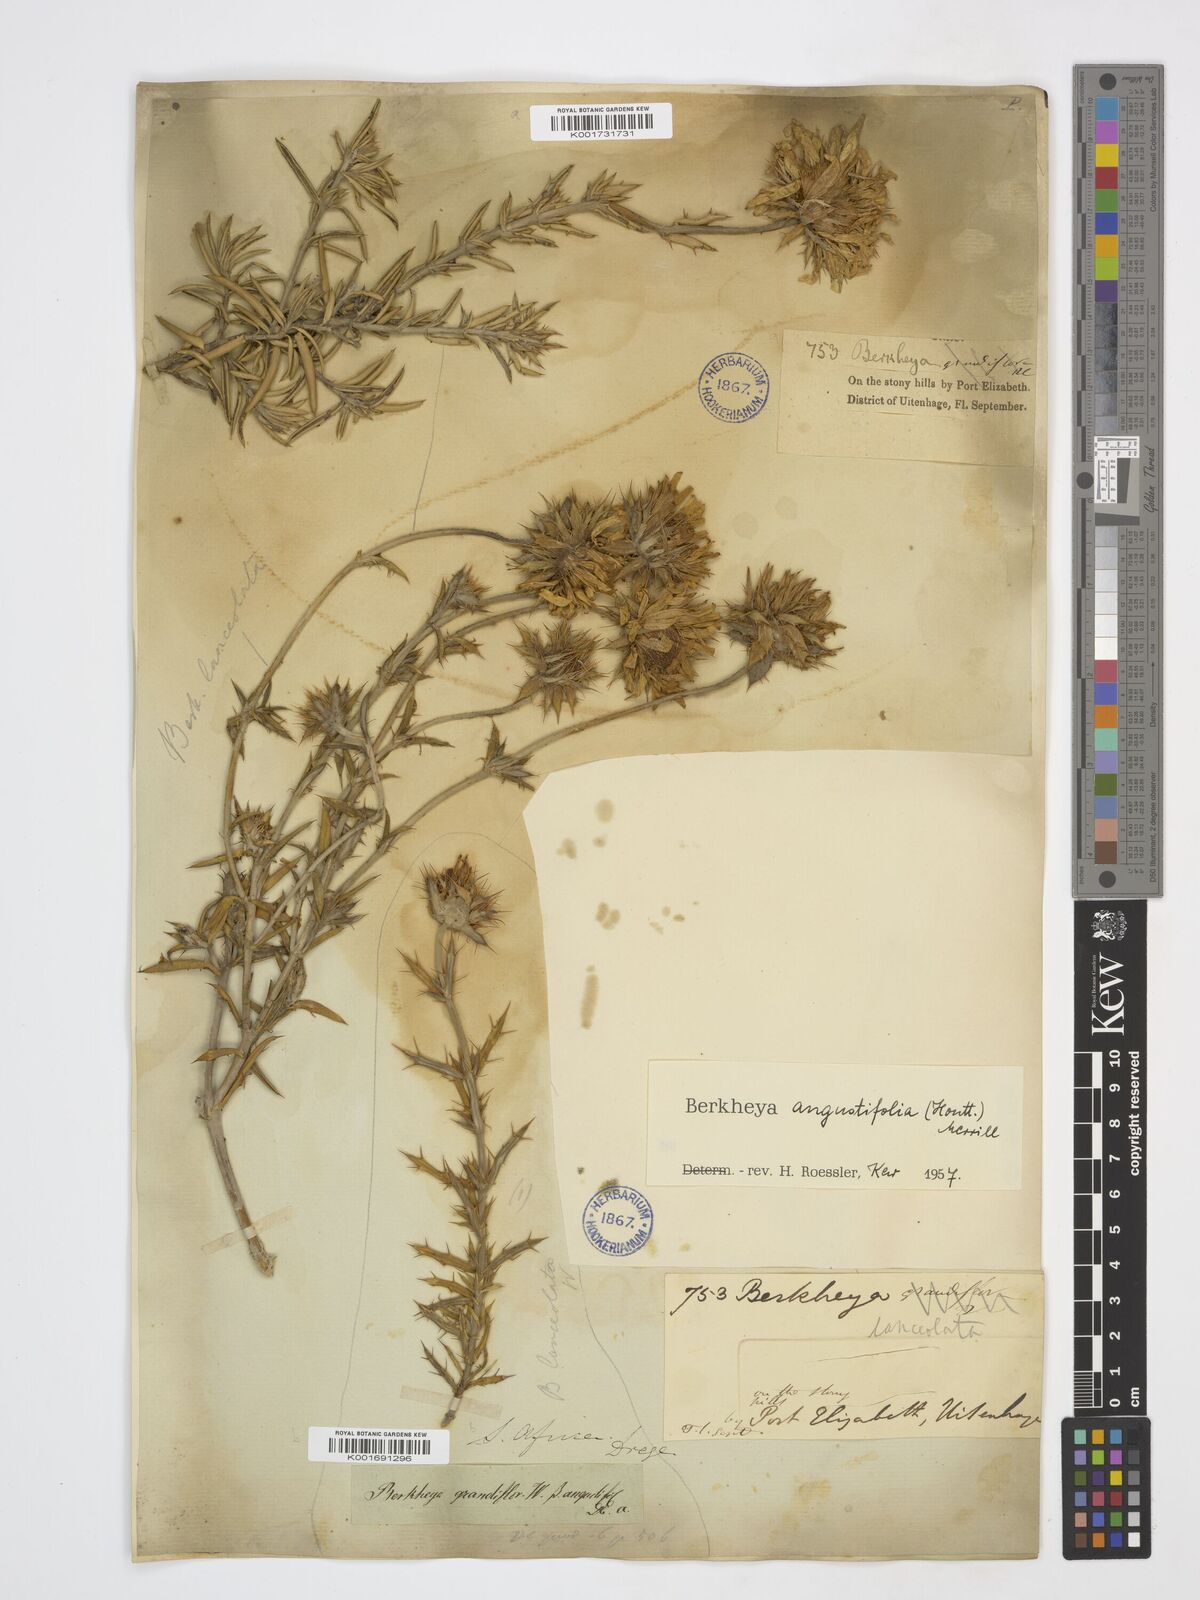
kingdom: Plantae
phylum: Tracheophyta
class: Magnoliopsida
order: Asterales
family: Asteraceae
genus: Berkheya
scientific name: Berkheya angustifolia
